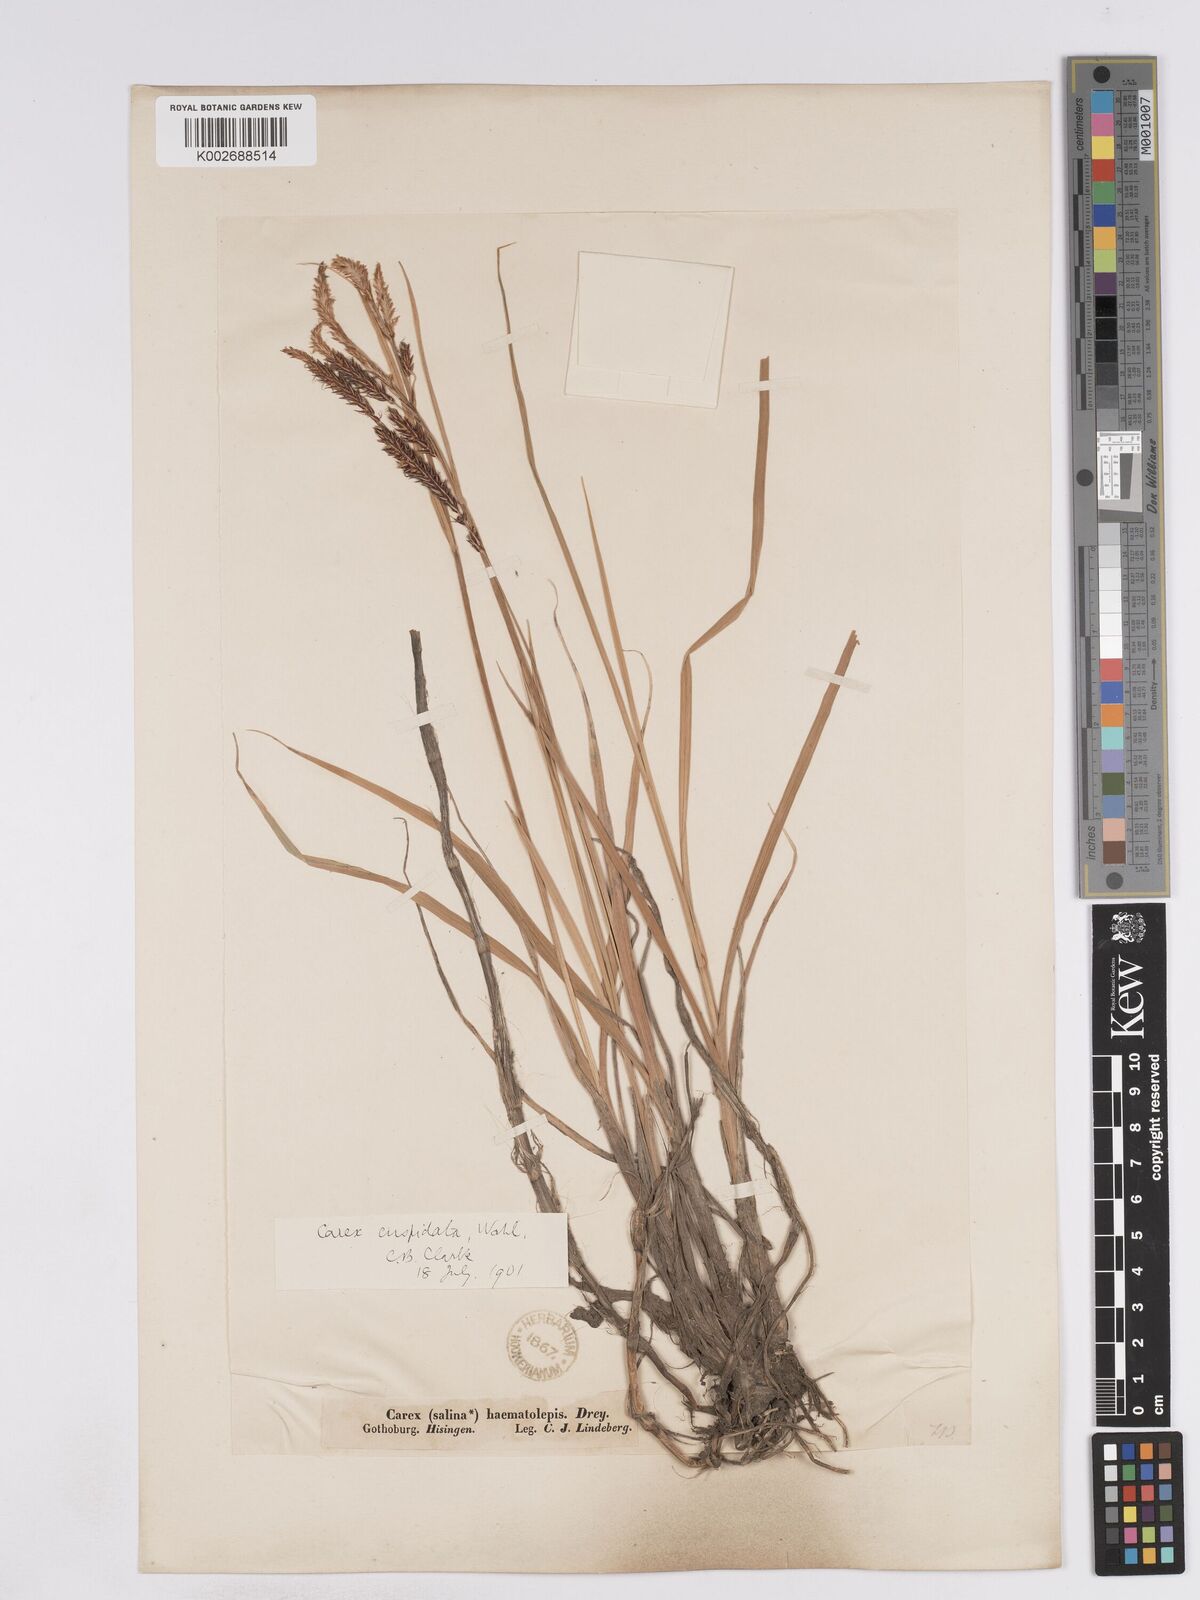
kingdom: Plantae
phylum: Tracheophyta
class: Liliopsida
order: Poales
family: Cyperaceae
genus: Carex
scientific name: Carex recta
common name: Estuarine sedge
